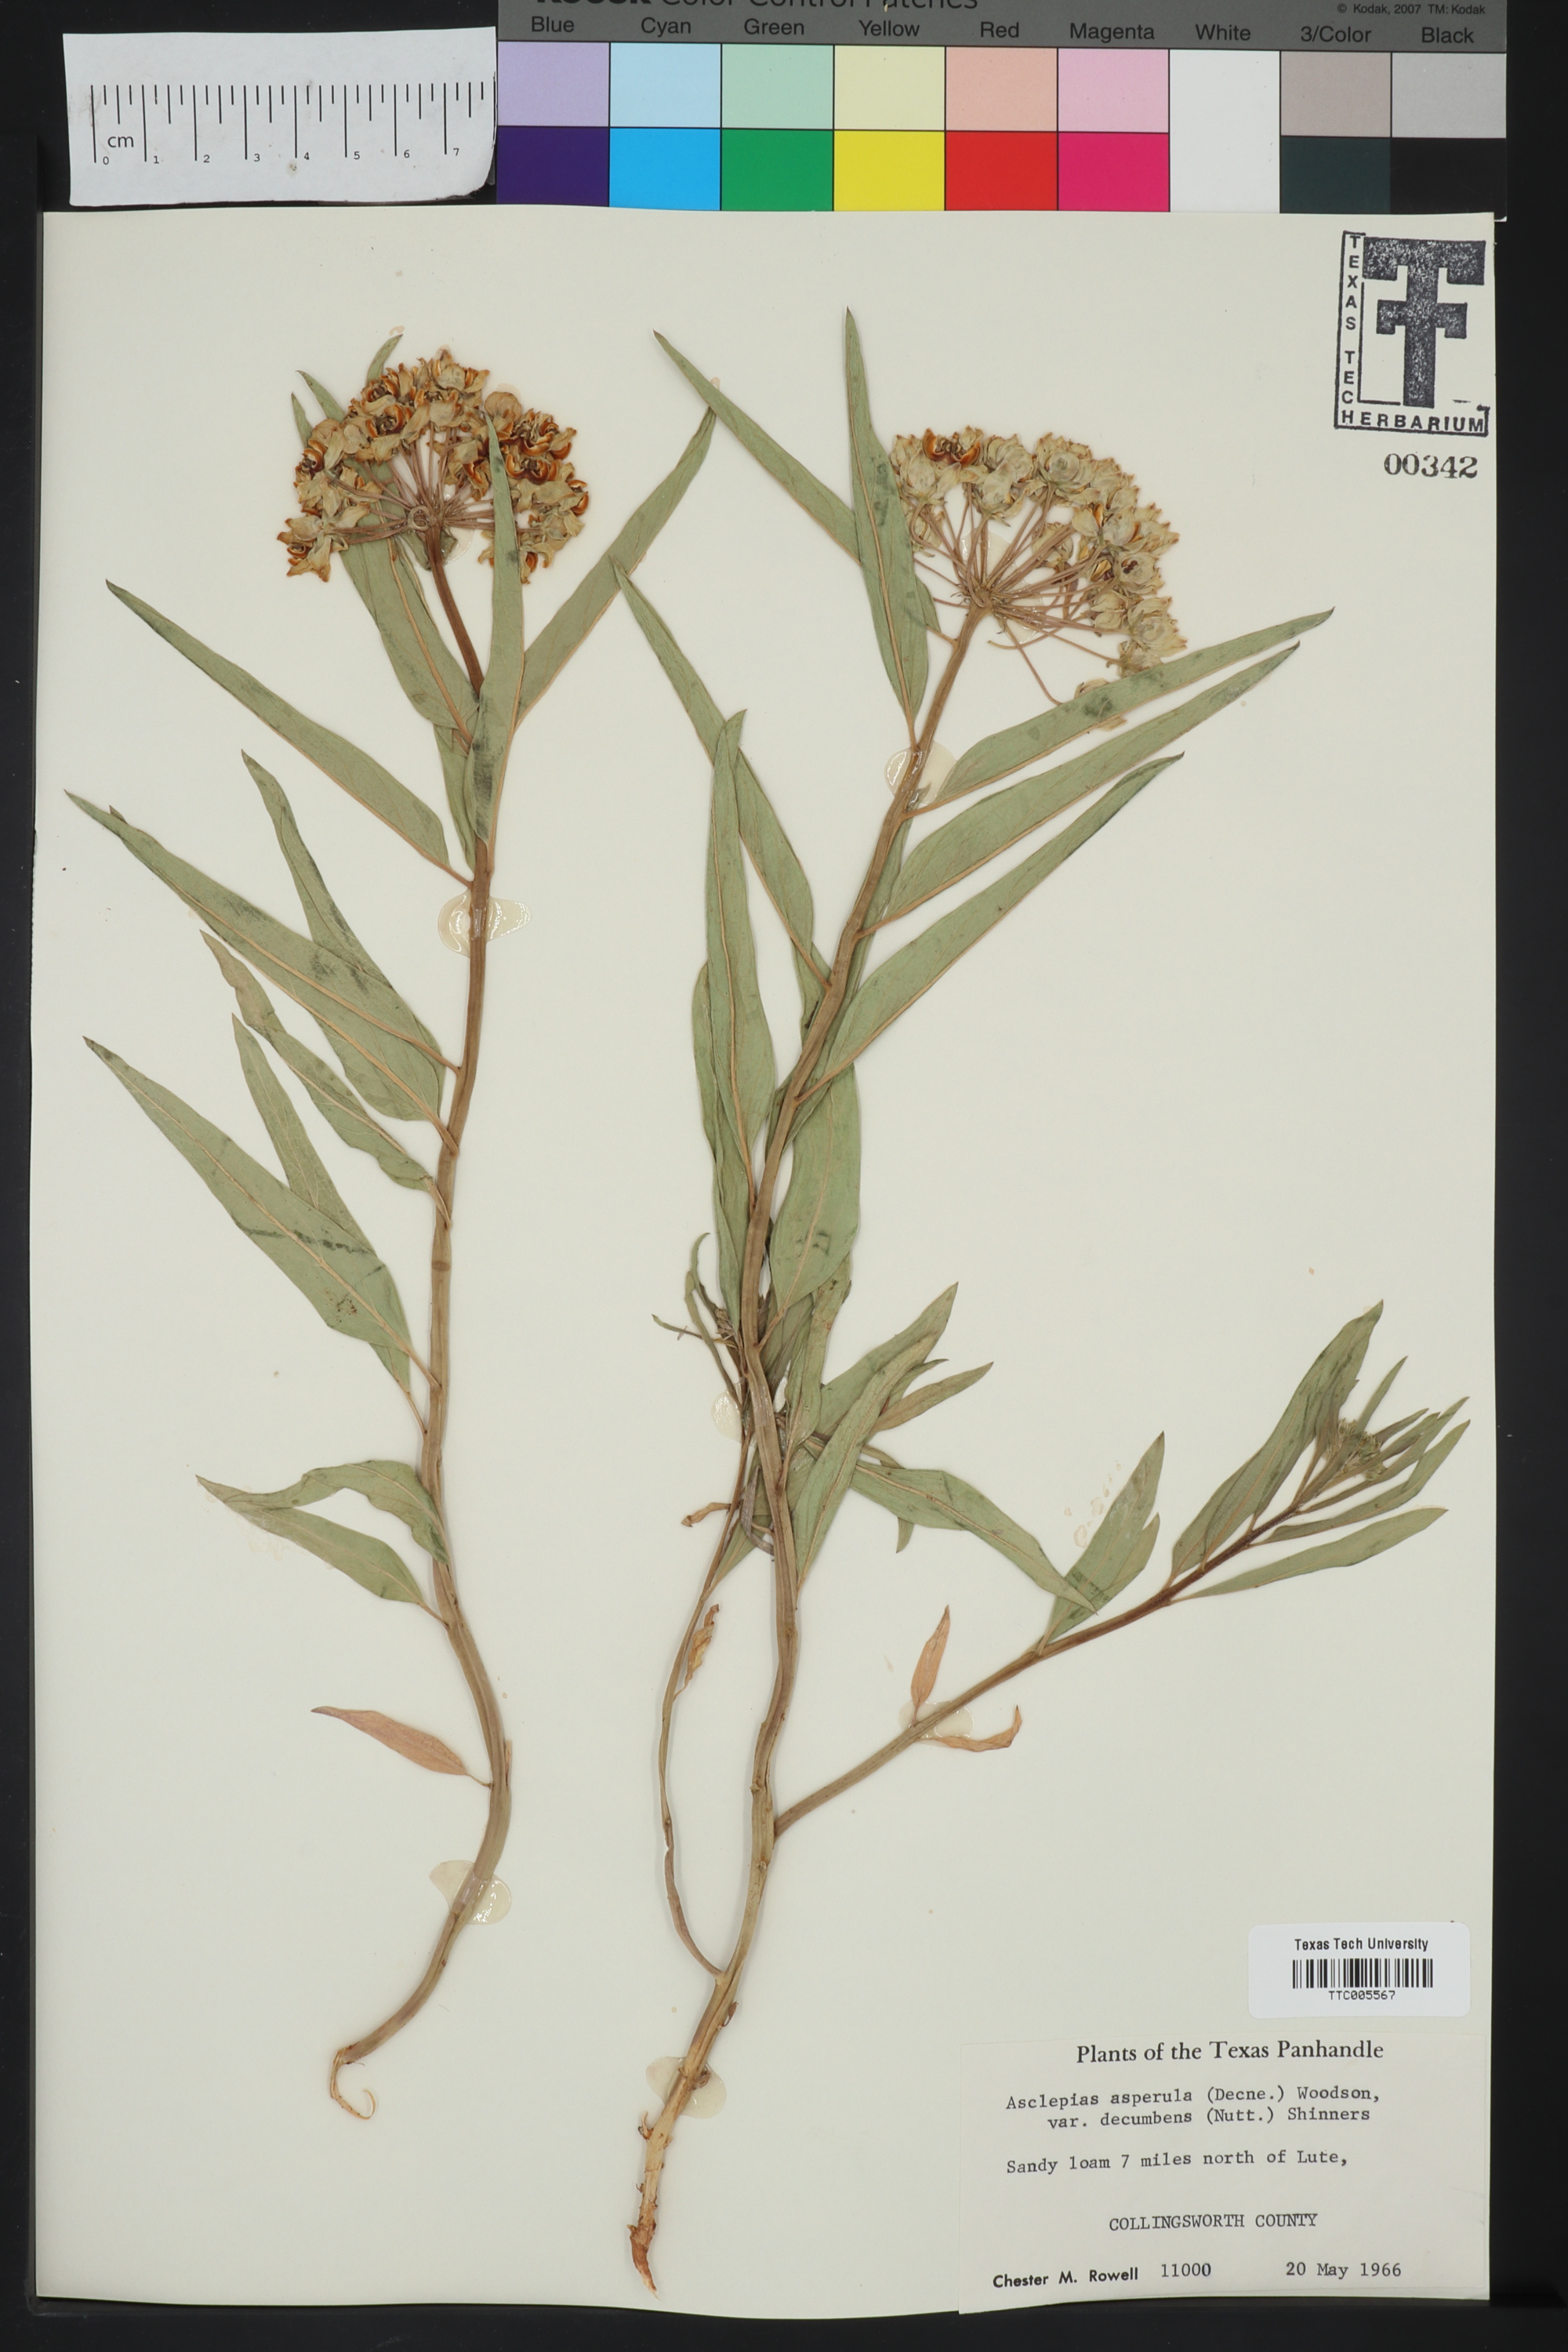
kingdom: Plantae
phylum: Tracheophyta
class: Magnoliopsida
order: Gentianales
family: Apocynaceae
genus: Asclepias
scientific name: Asclepias asperula
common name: Antelope horns
